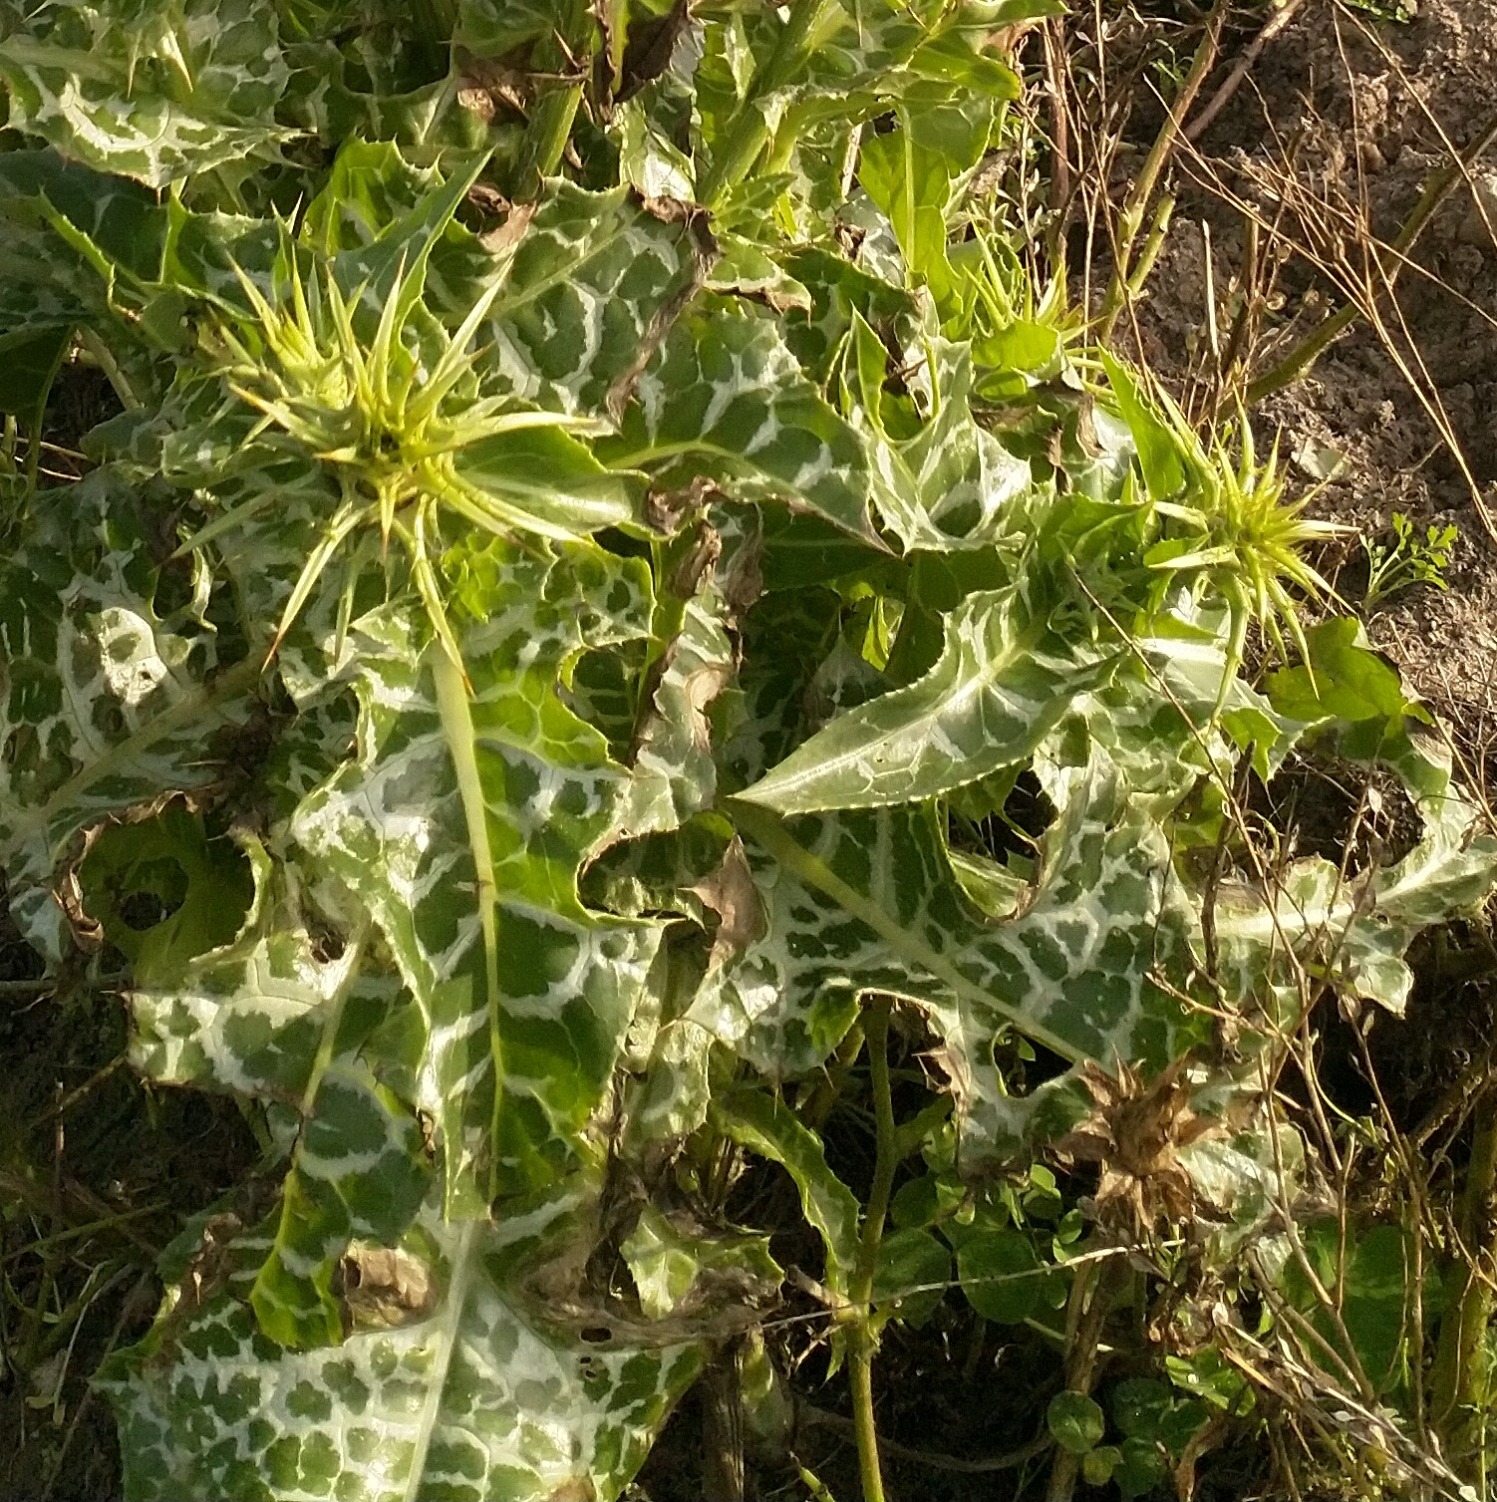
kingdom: Plantae
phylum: Tracheophyta
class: Magnoliopsida
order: Asterales
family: Asteraceae
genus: Silybum
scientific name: Silybum marianum
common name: Marietidsel
